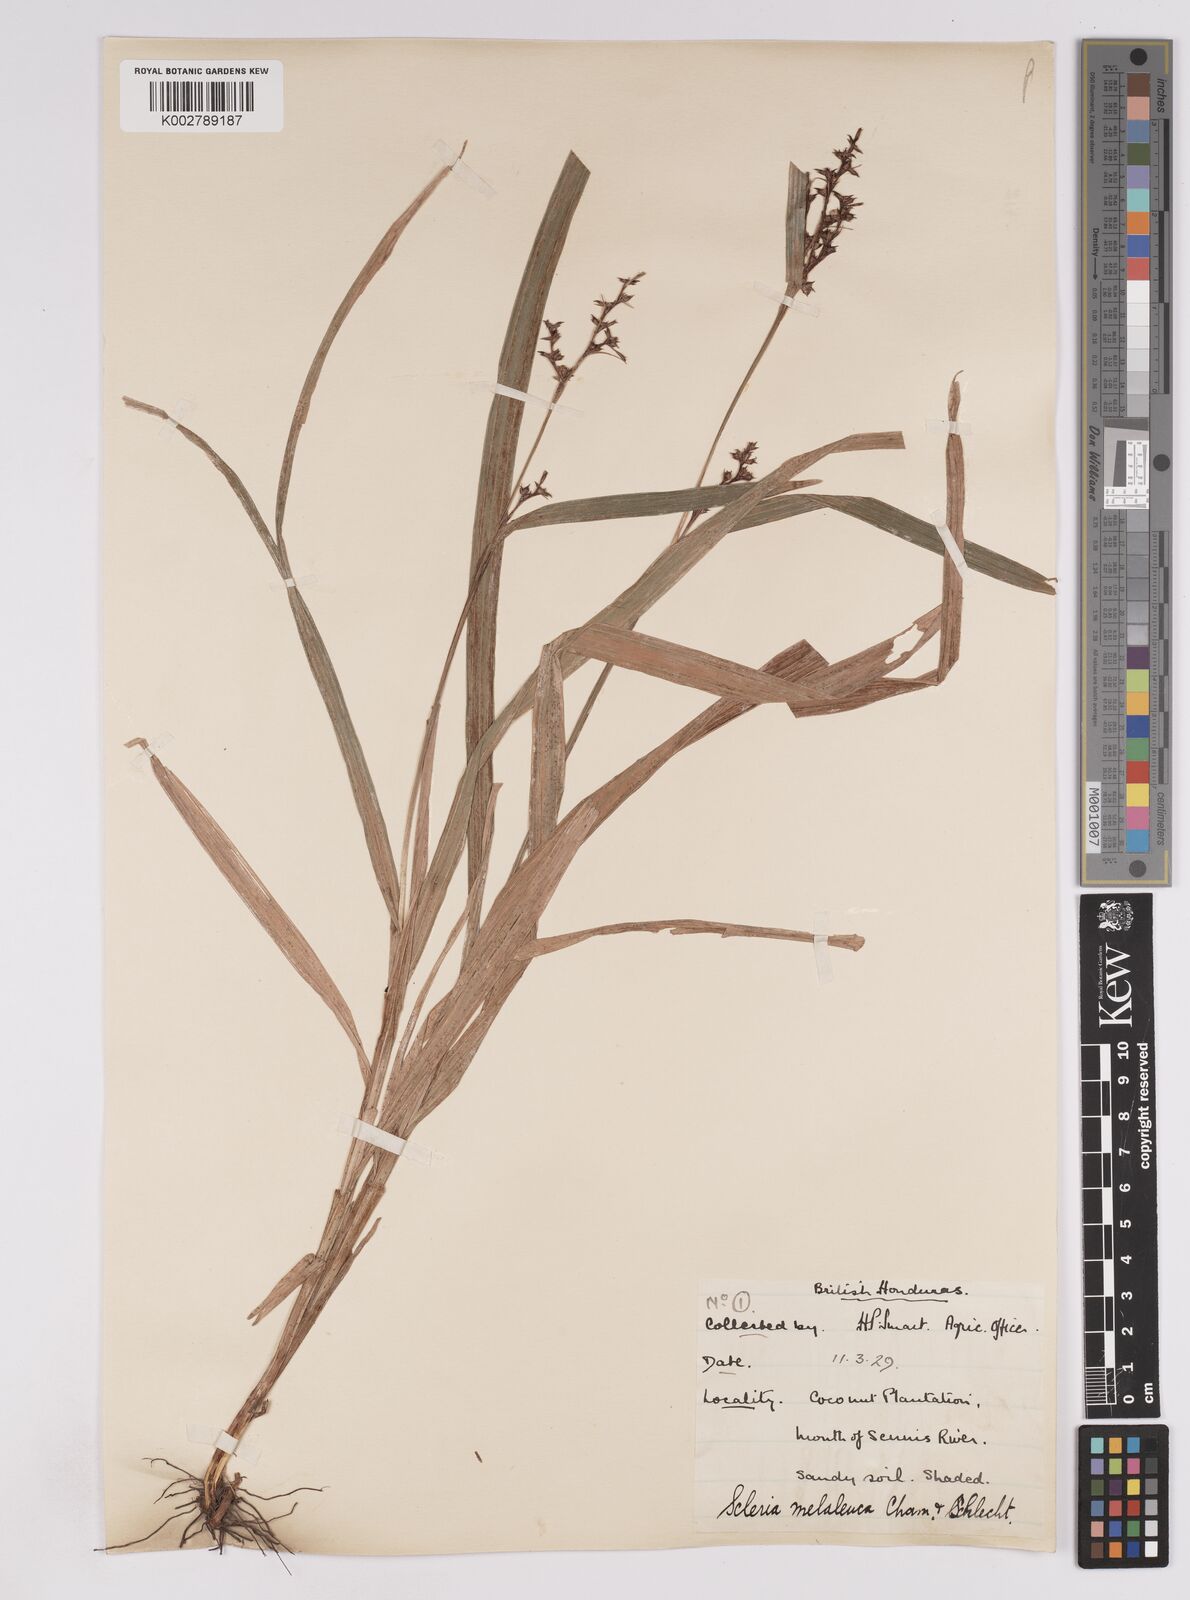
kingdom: Plantae
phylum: Tracheophyta
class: Liliopsida
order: Poales
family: Cyperaceae
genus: Scleria
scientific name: Scleria gaertneri
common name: Cortadera blanca
